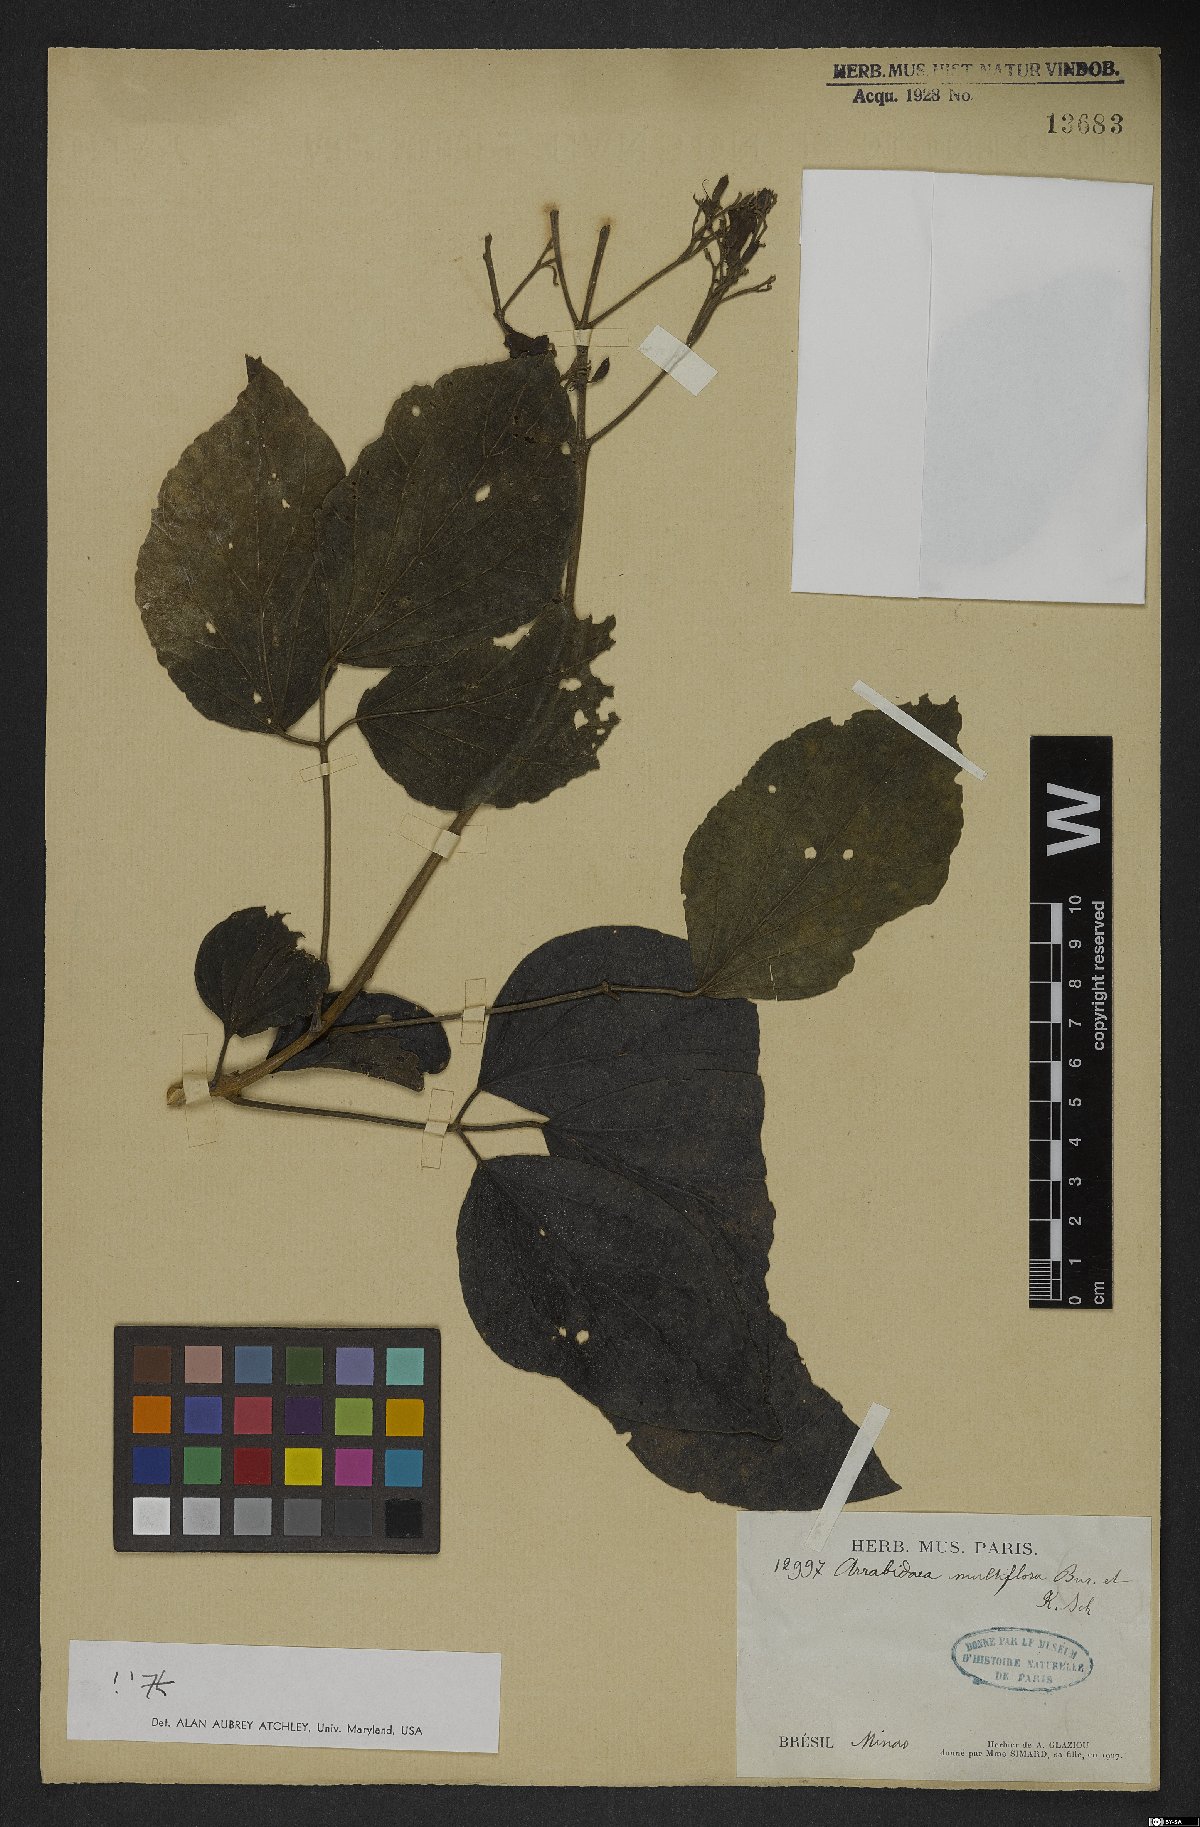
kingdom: Plantae
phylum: Tracheophyta
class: Magnoliopsida
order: Lamiales
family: Bignoniaceae
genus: Fridericia
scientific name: Fridericia Arrabidaea multiflora
